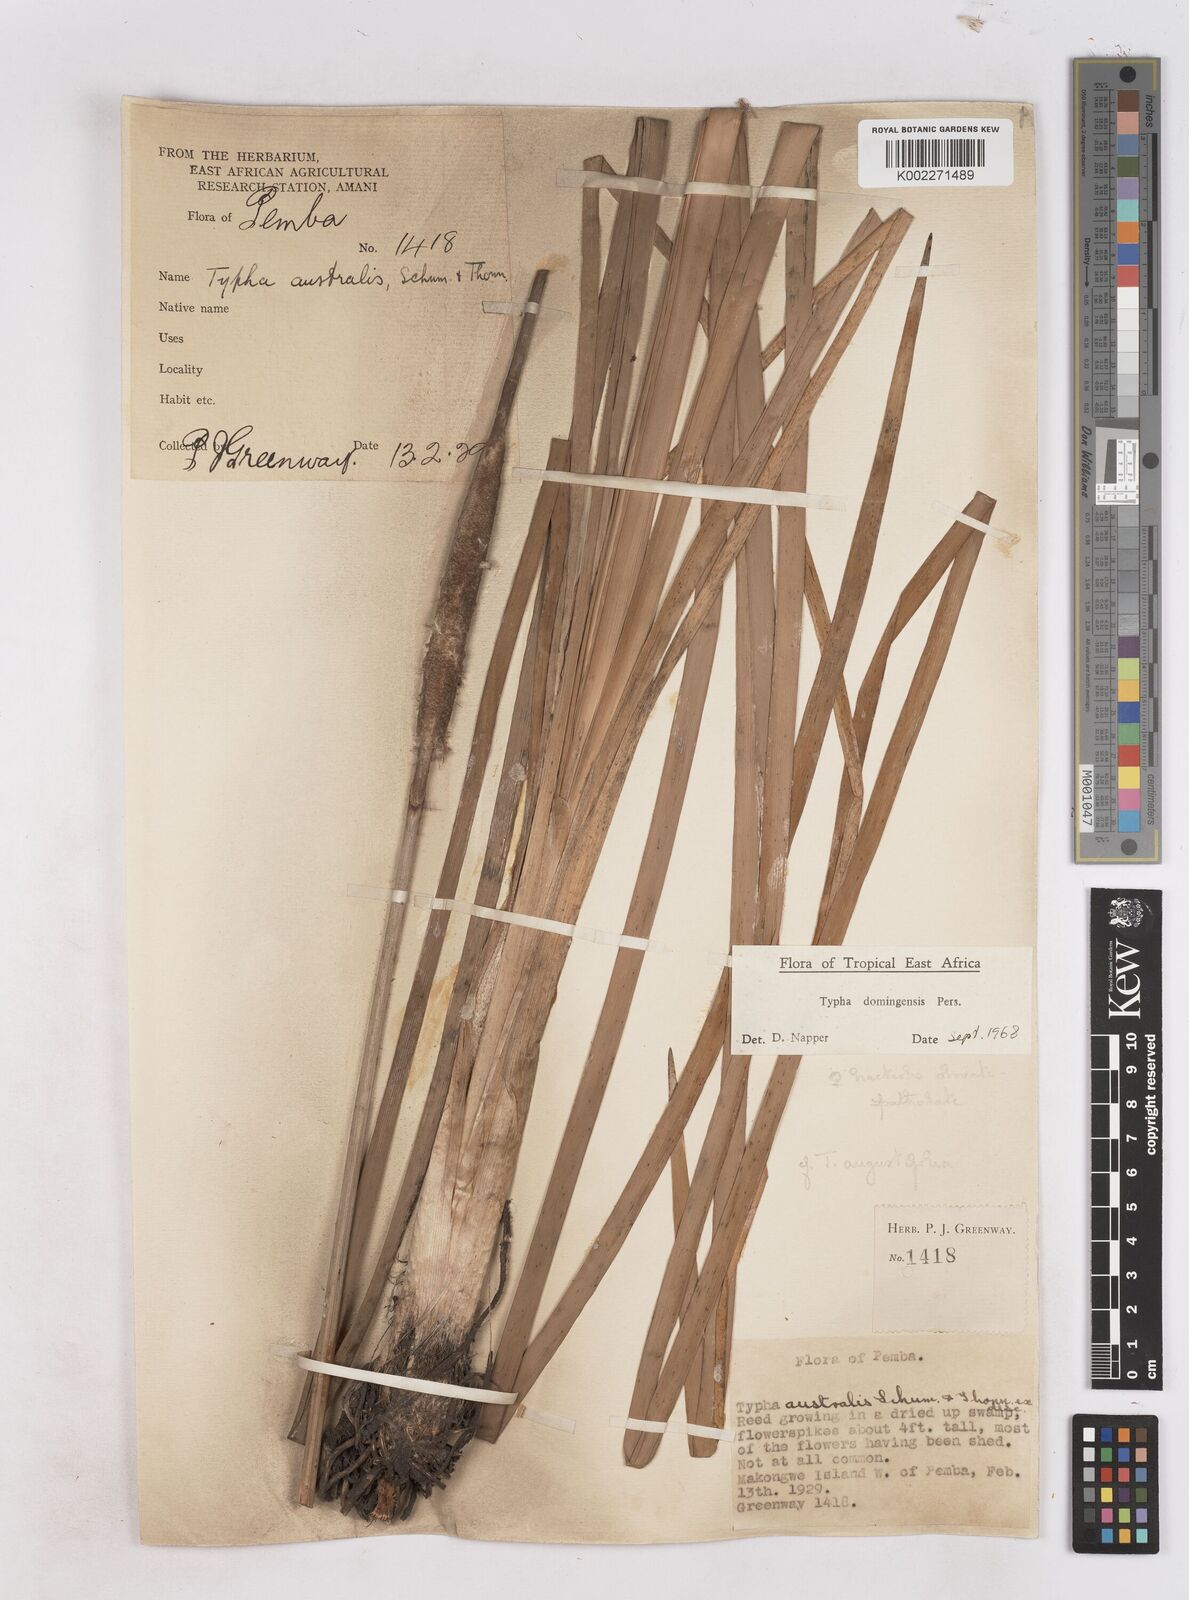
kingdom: Plantae
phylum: Tracheophyta
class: Liliopsida
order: Poales
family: Typhaceae
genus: Typha
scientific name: Typha domingensis
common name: Southern cattail
